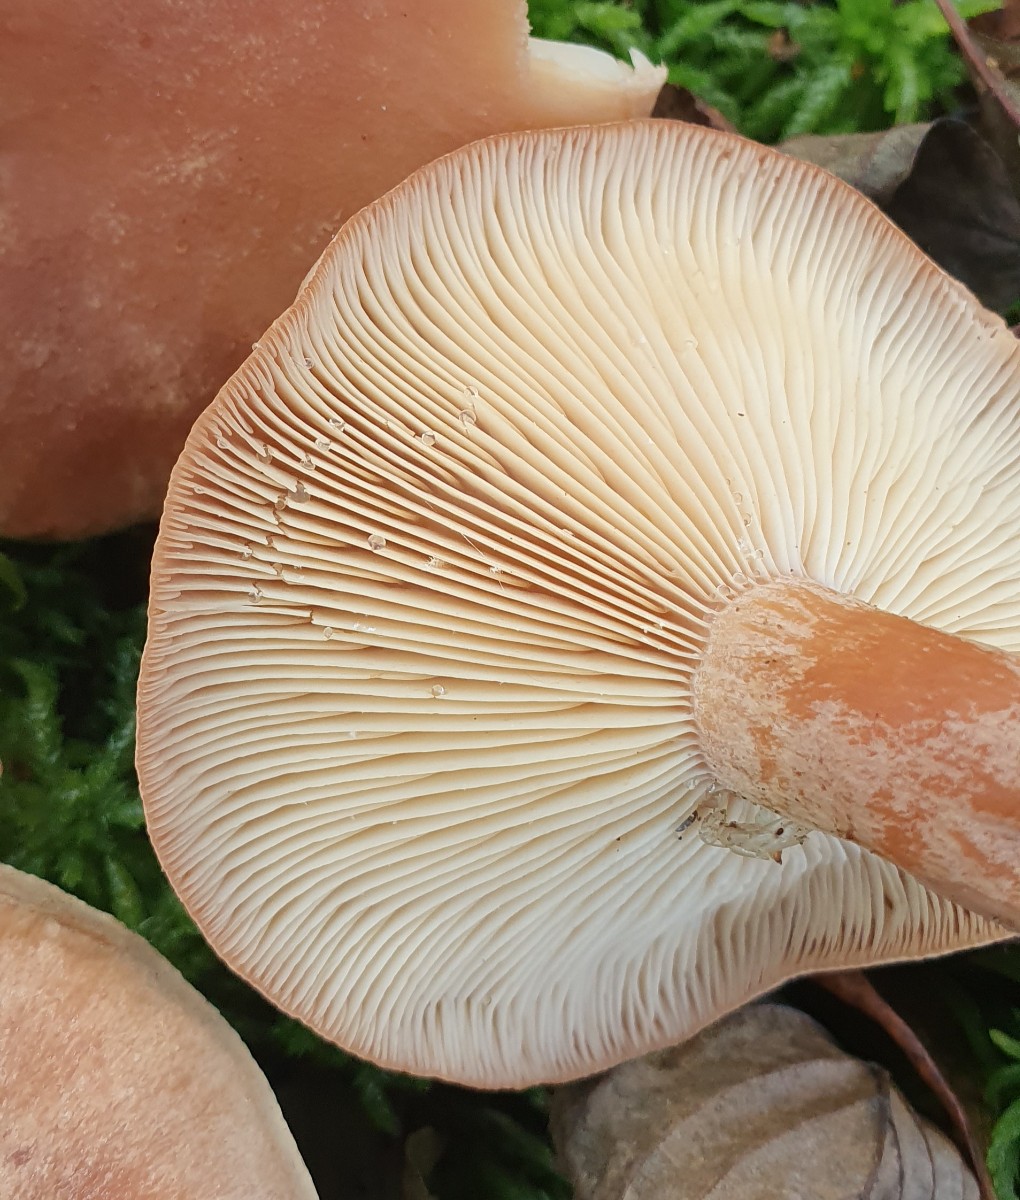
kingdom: Fungi
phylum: Basidiomycota
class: Agaricomycetes
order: Russulales
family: Russulaceae
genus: Lactarius
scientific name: Lactarius helvus
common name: mose-mælkehat
